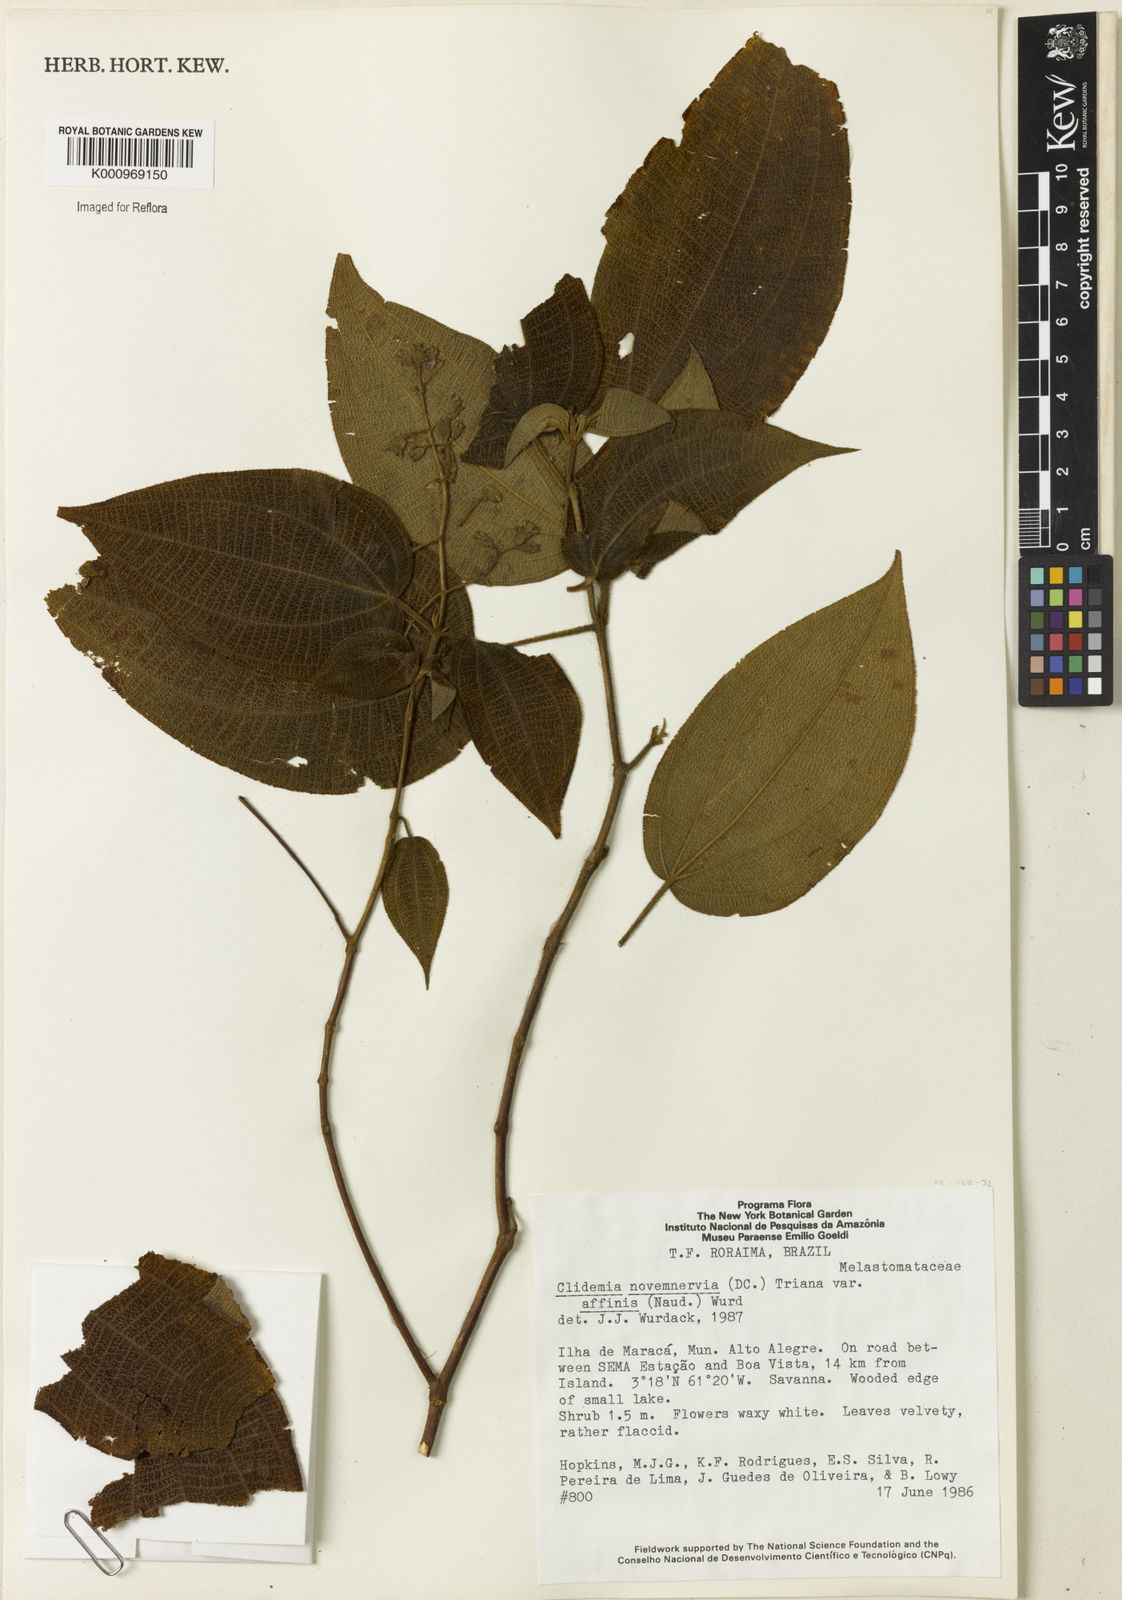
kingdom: Plantae
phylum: Tracheophyta
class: Magnoliopsida
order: Myrtales
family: Melastomataceae
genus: Miconia
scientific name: Miconia bullatifolia
